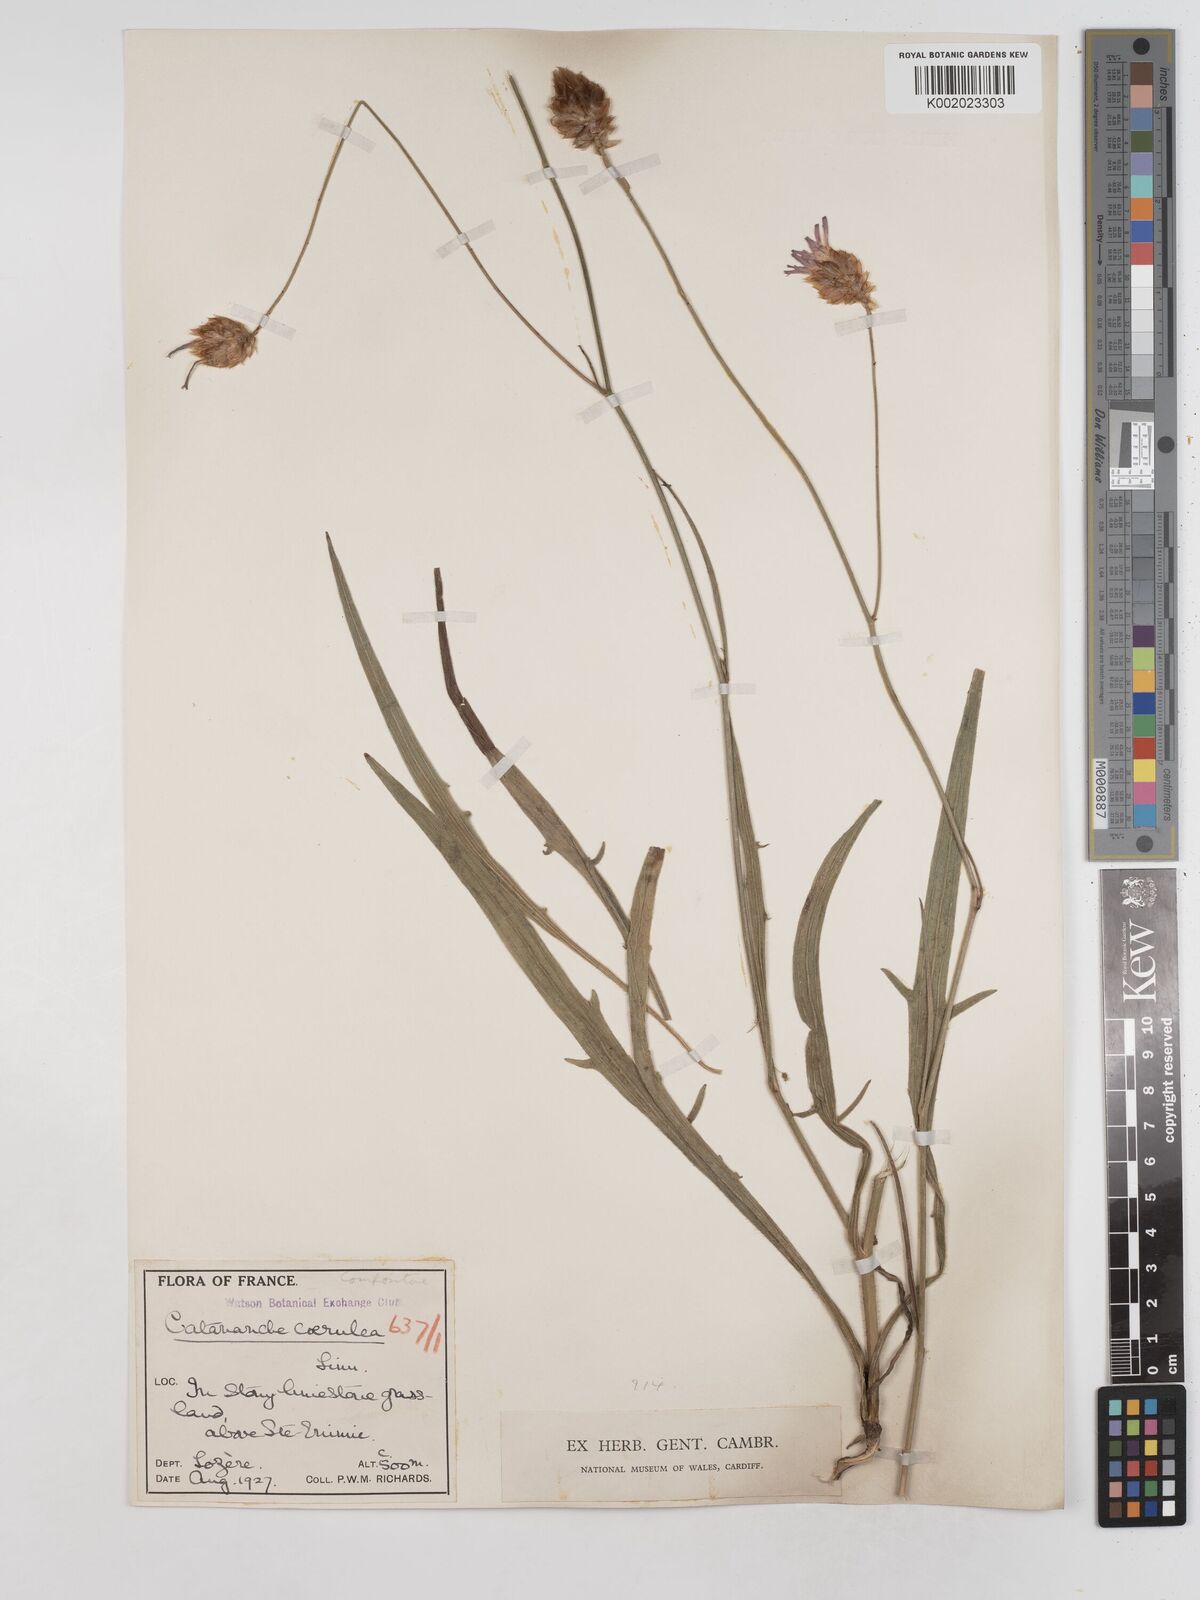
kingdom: Plantae
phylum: Tracheophyta
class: Magnoliopsida
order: Asterales
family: Asteraceae
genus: Catananche
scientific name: Catananche caerulea
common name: Blue cupidone
